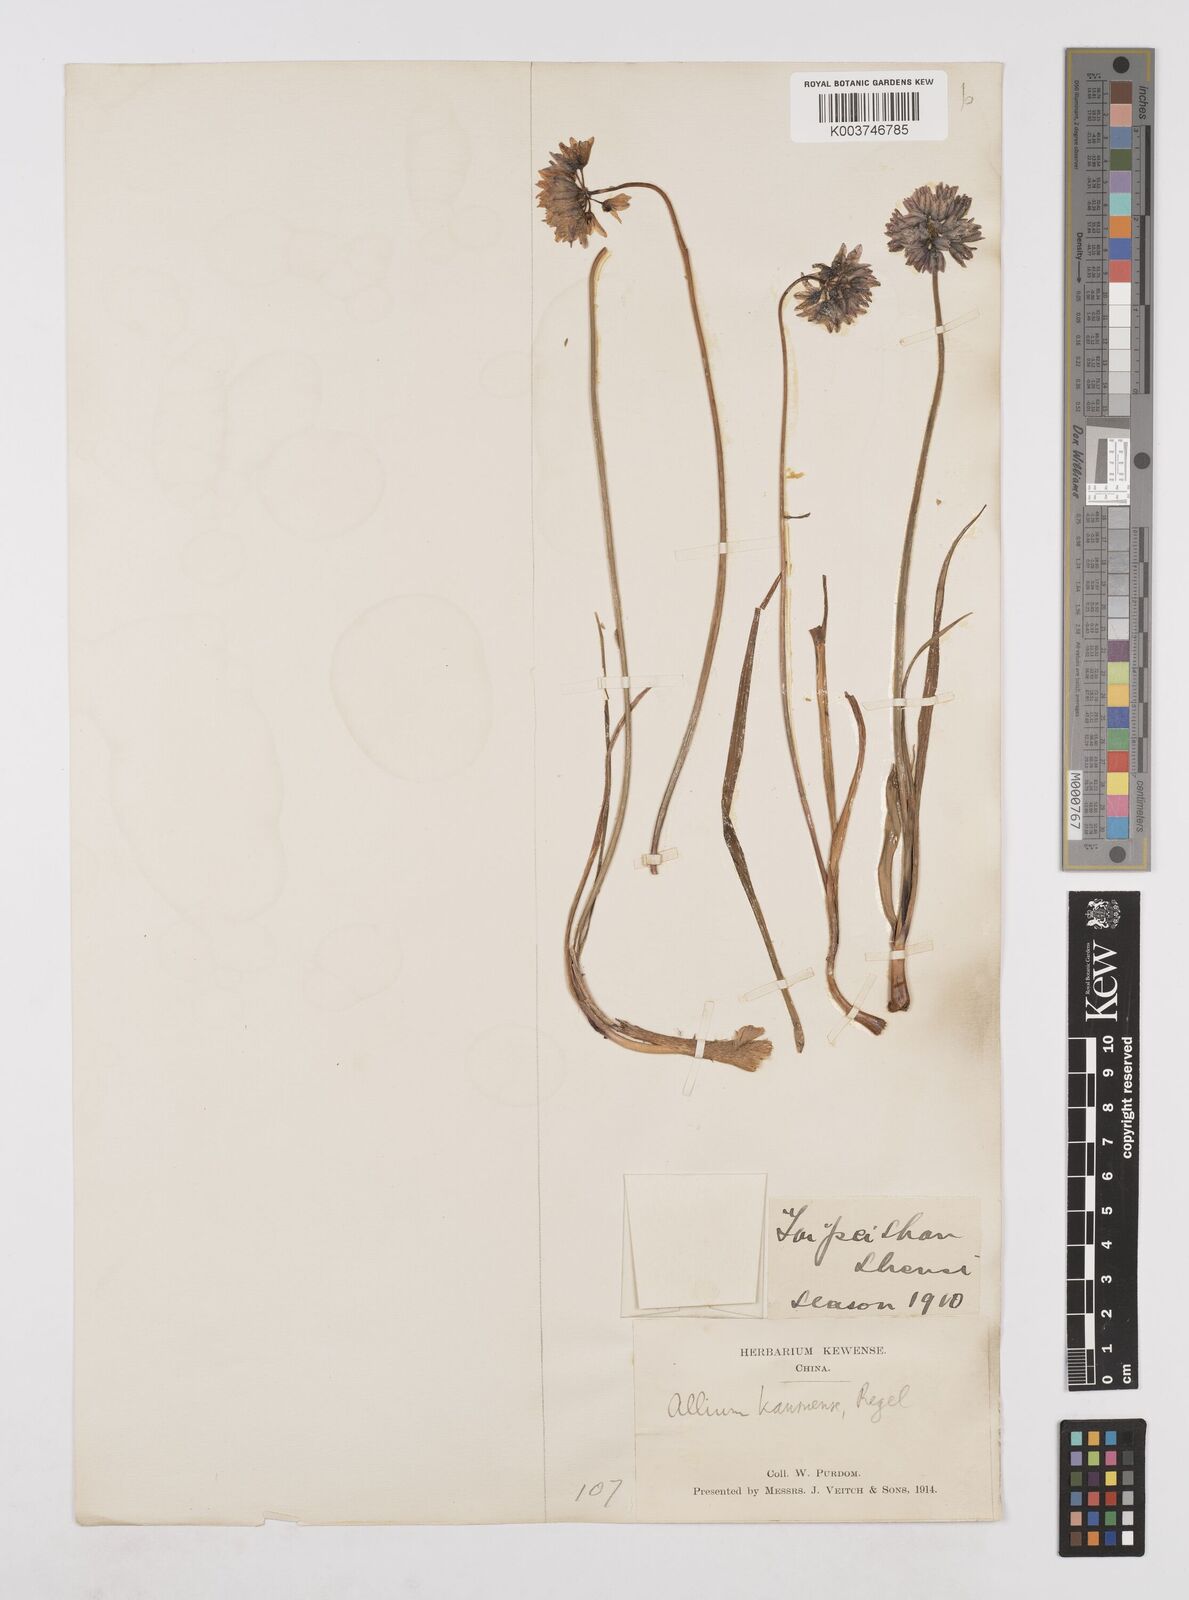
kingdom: Plantae
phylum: Tracheophyta
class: Liliopsida
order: Asparagales
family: Amaryllidaceae
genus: Allium
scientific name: Allium sikkimense
